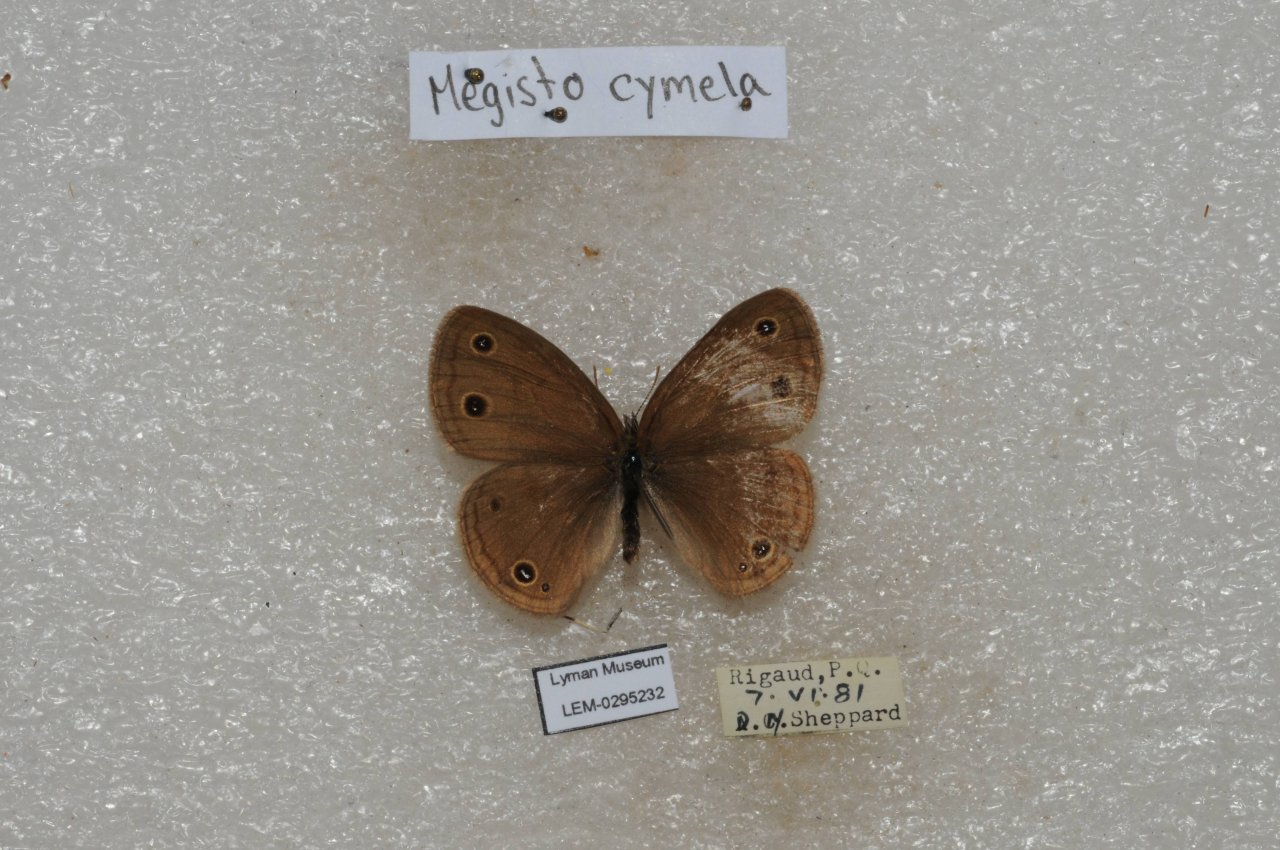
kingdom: Animalia
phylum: Arthropoda
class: Insecta
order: Lepidoptera
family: Nymphalidae
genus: Euptychia
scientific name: Euptychia cymela
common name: Little Wood Satyr
